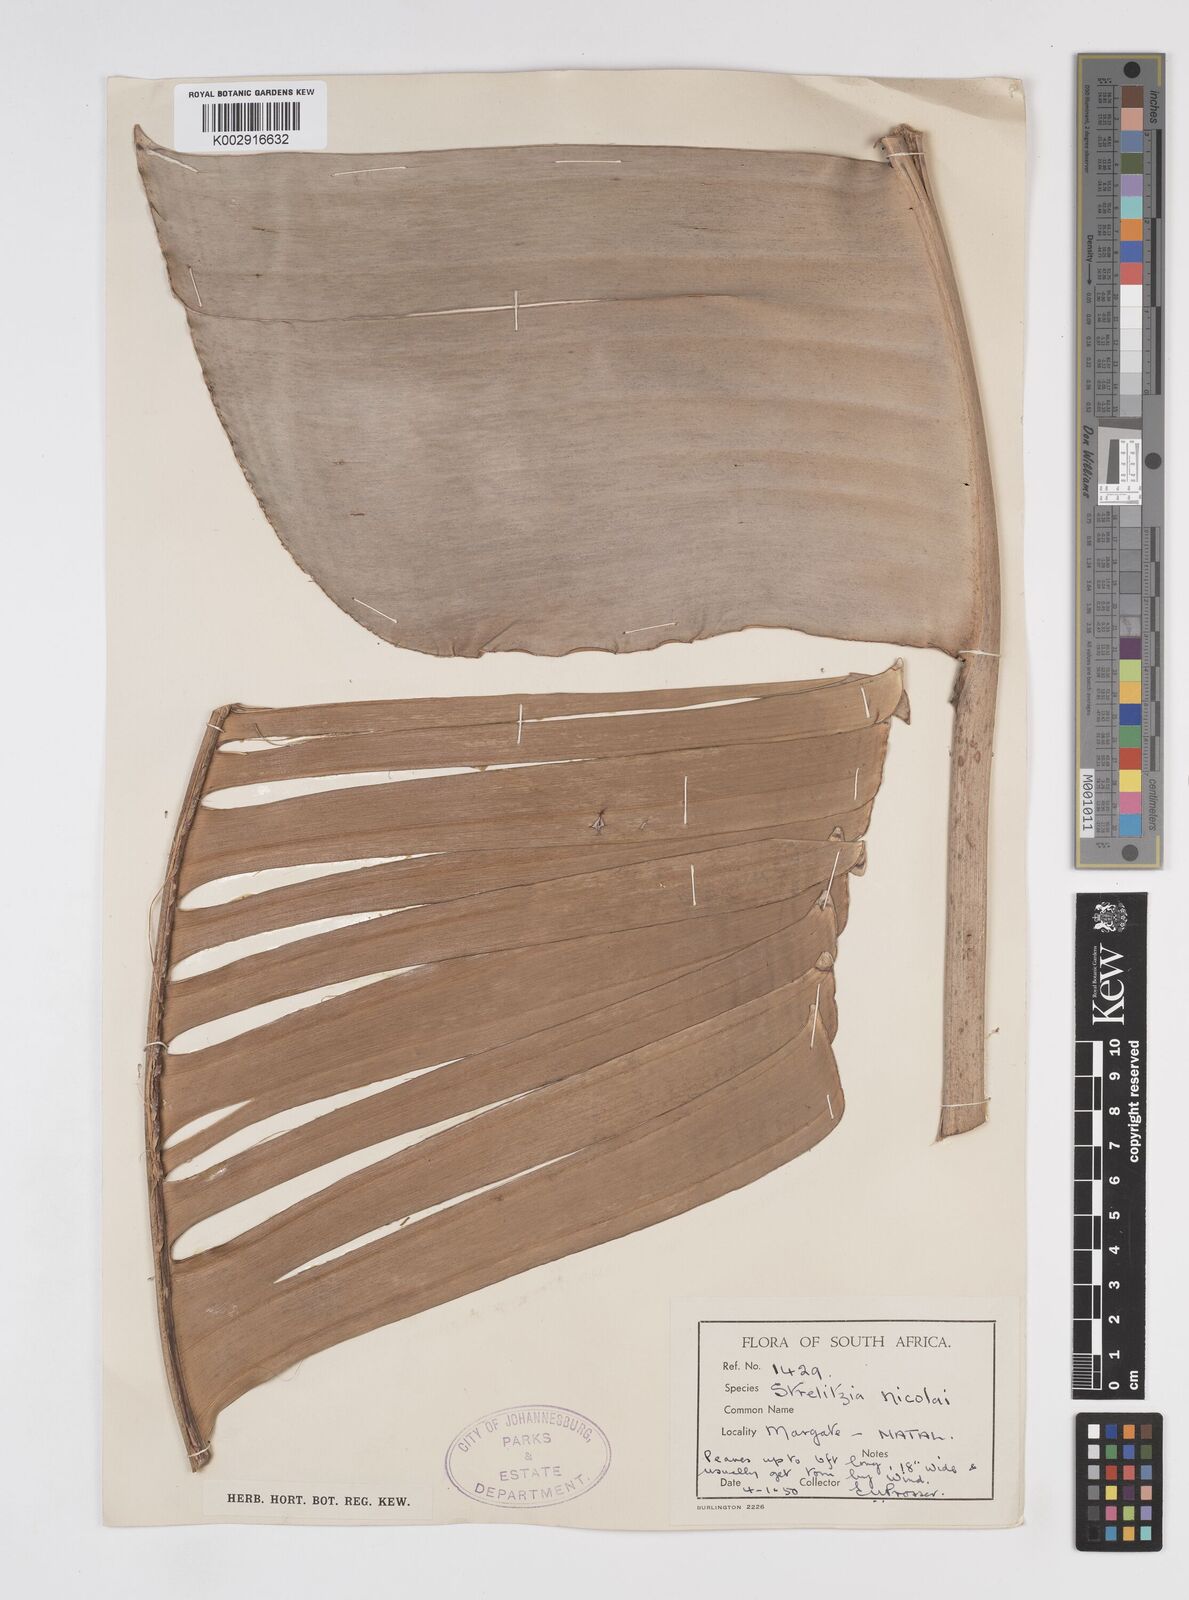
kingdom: Plantae
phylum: Tracheophyta
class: Liliopsida
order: Zingiberales
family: Strelitziaceae
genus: Strelitzia
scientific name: Strelitzia nicolai
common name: Bird-of-paradise tree
